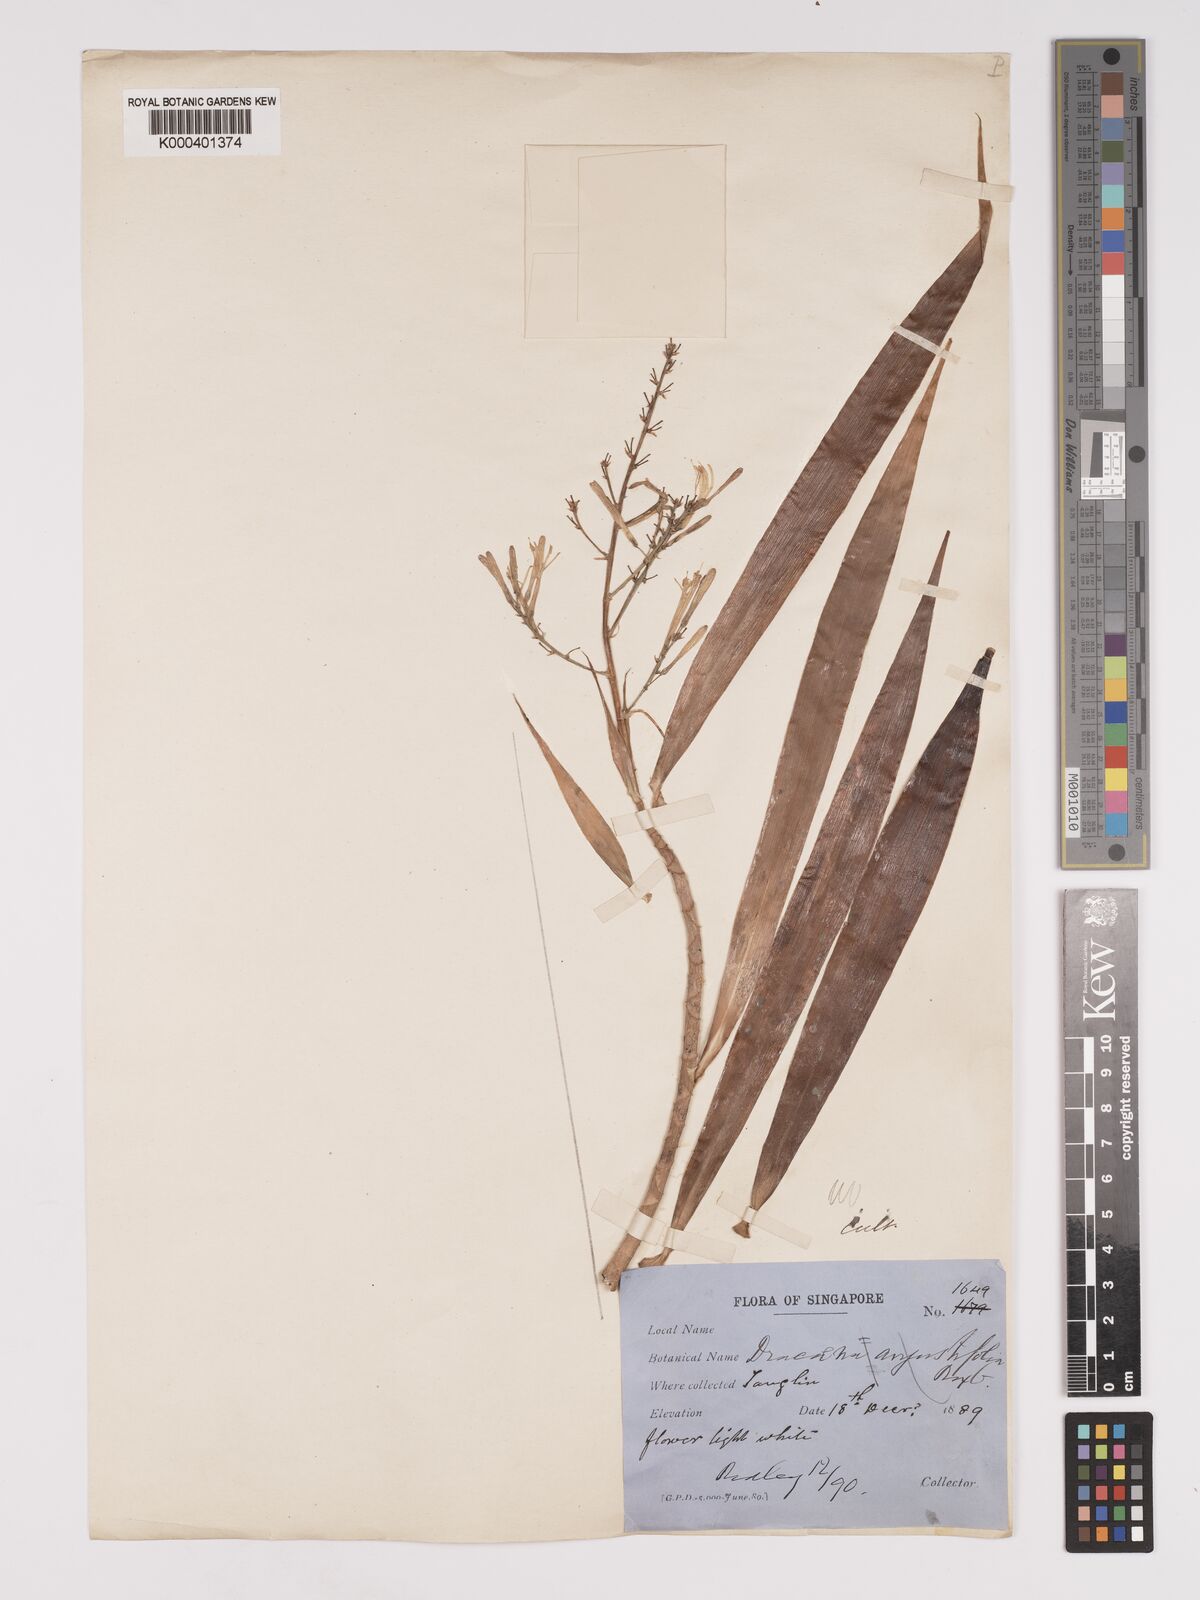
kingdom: Plantae
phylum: Tracheophyta
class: Liliopsida
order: Asparagales
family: Asparagaceae
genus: Dracaena
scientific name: Dracaena angustifolia
